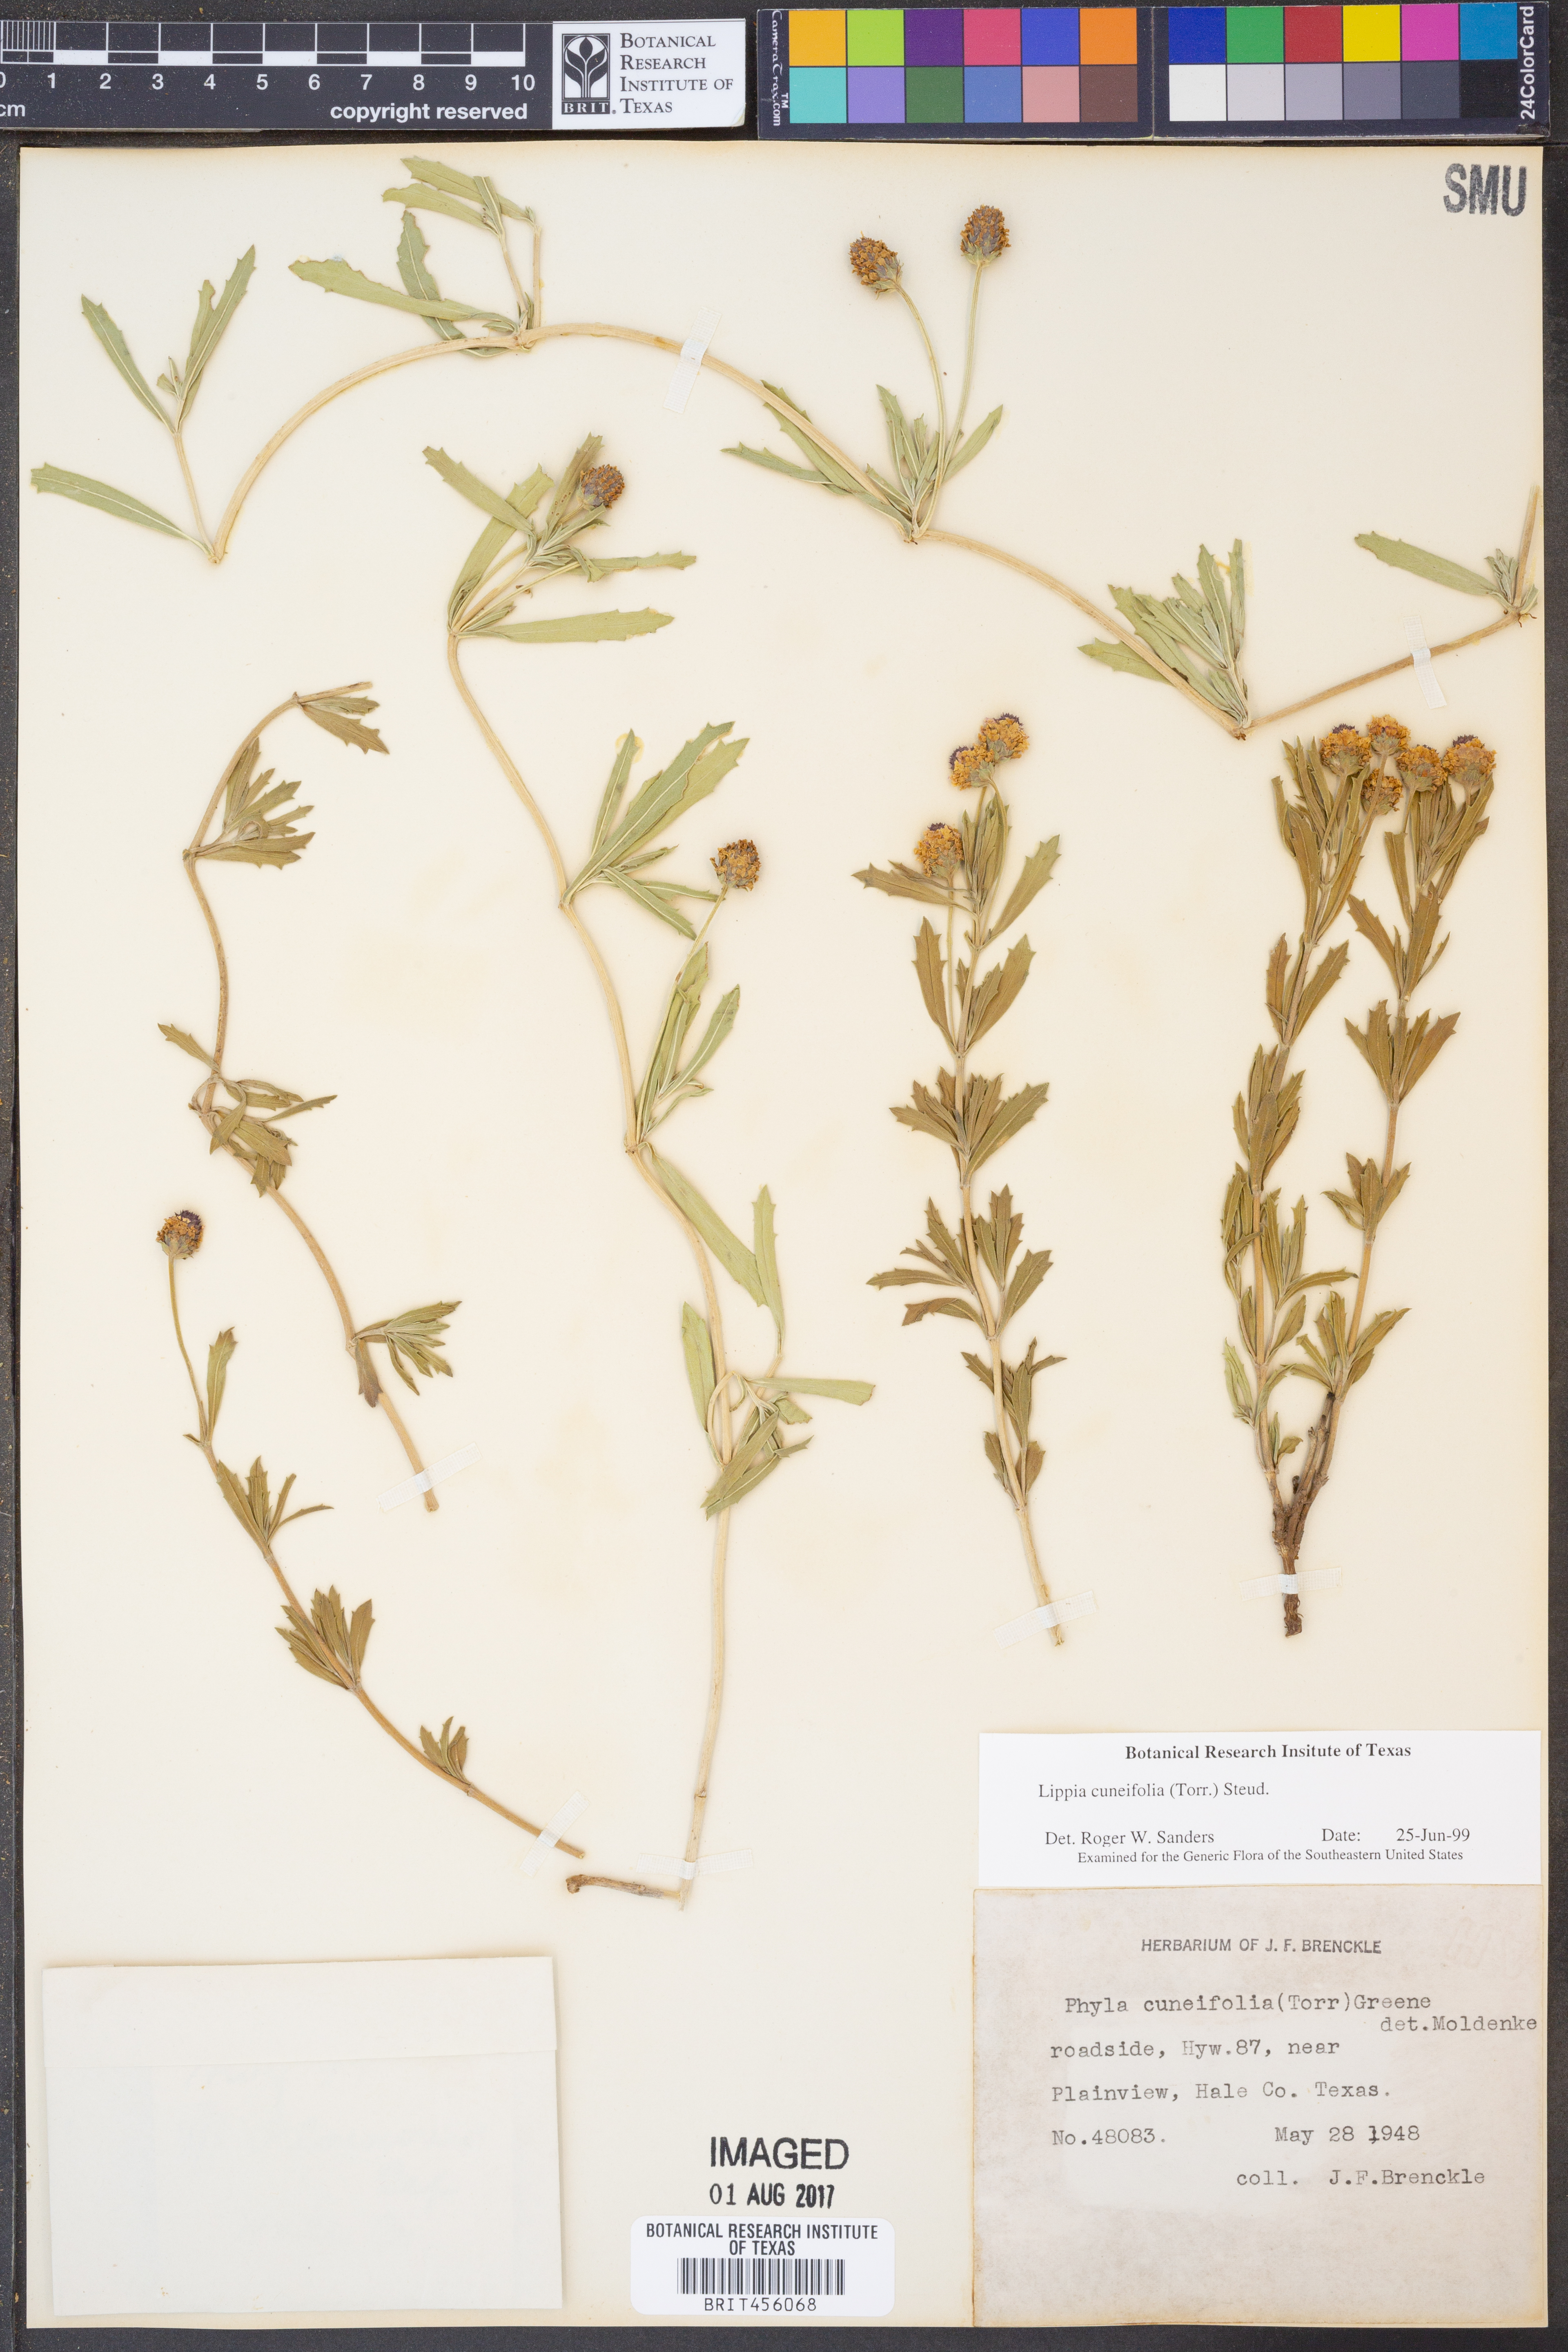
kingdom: Plantae
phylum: Tracheophyta
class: Magnoliopsida
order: Lamiales
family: Verbenaceae
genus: Phyla
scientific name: Phyla cuneifolia
